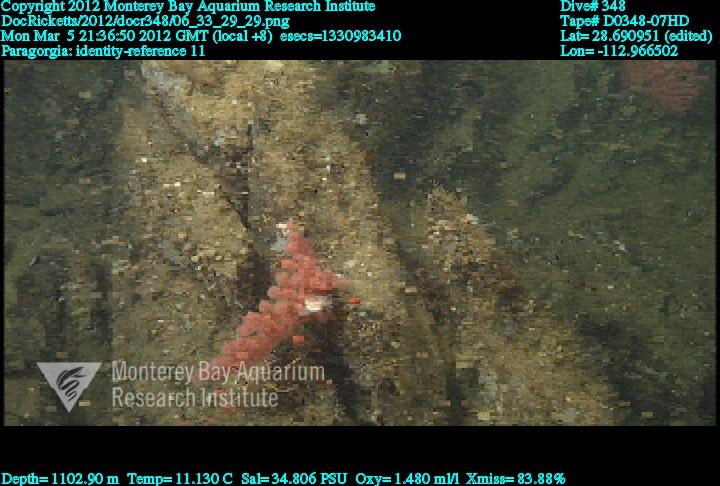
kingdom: Animalia
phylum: Cnidaria
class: Anthozoa
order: Scleralcyonacea
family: Coralliidae
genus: Paragorgia
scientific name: Paragorgia
